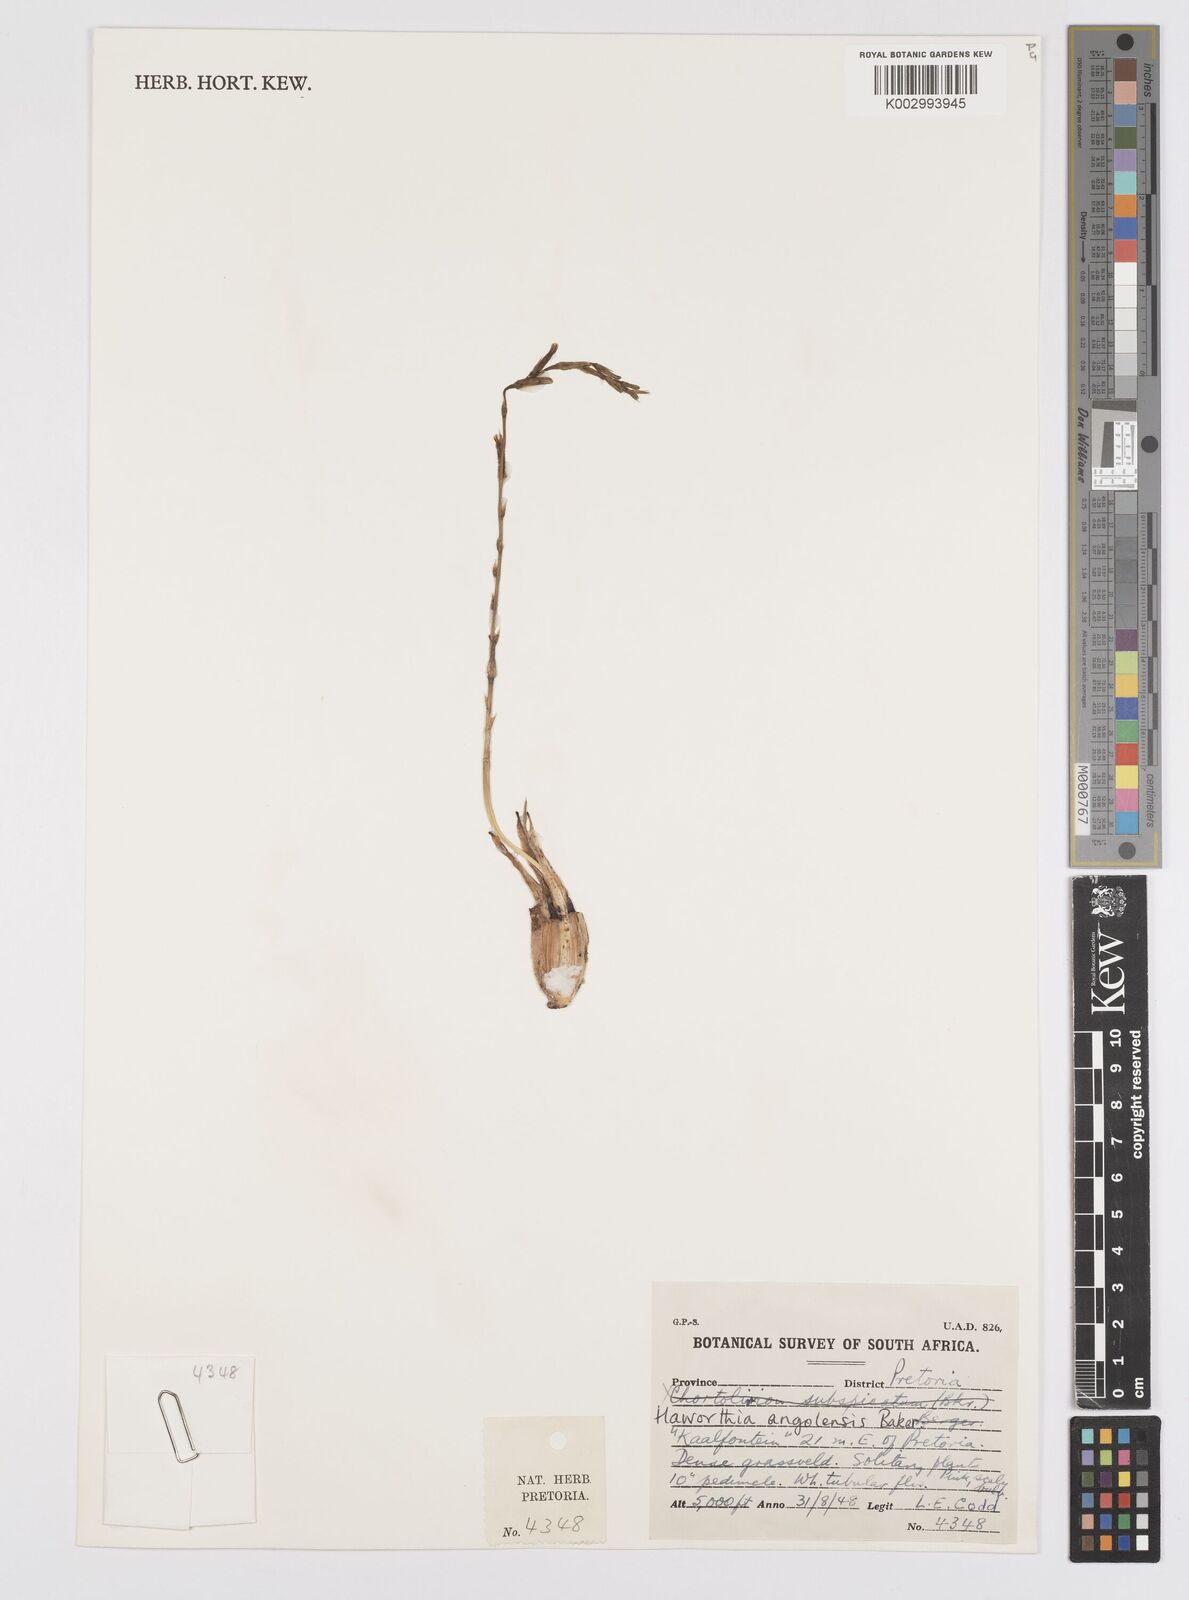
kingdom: Plantae
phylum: Tracheophyta
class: Liliopsida
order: Asparagales
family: Asphodelaceae
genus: Aloe
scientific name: Aloe welwitschii
